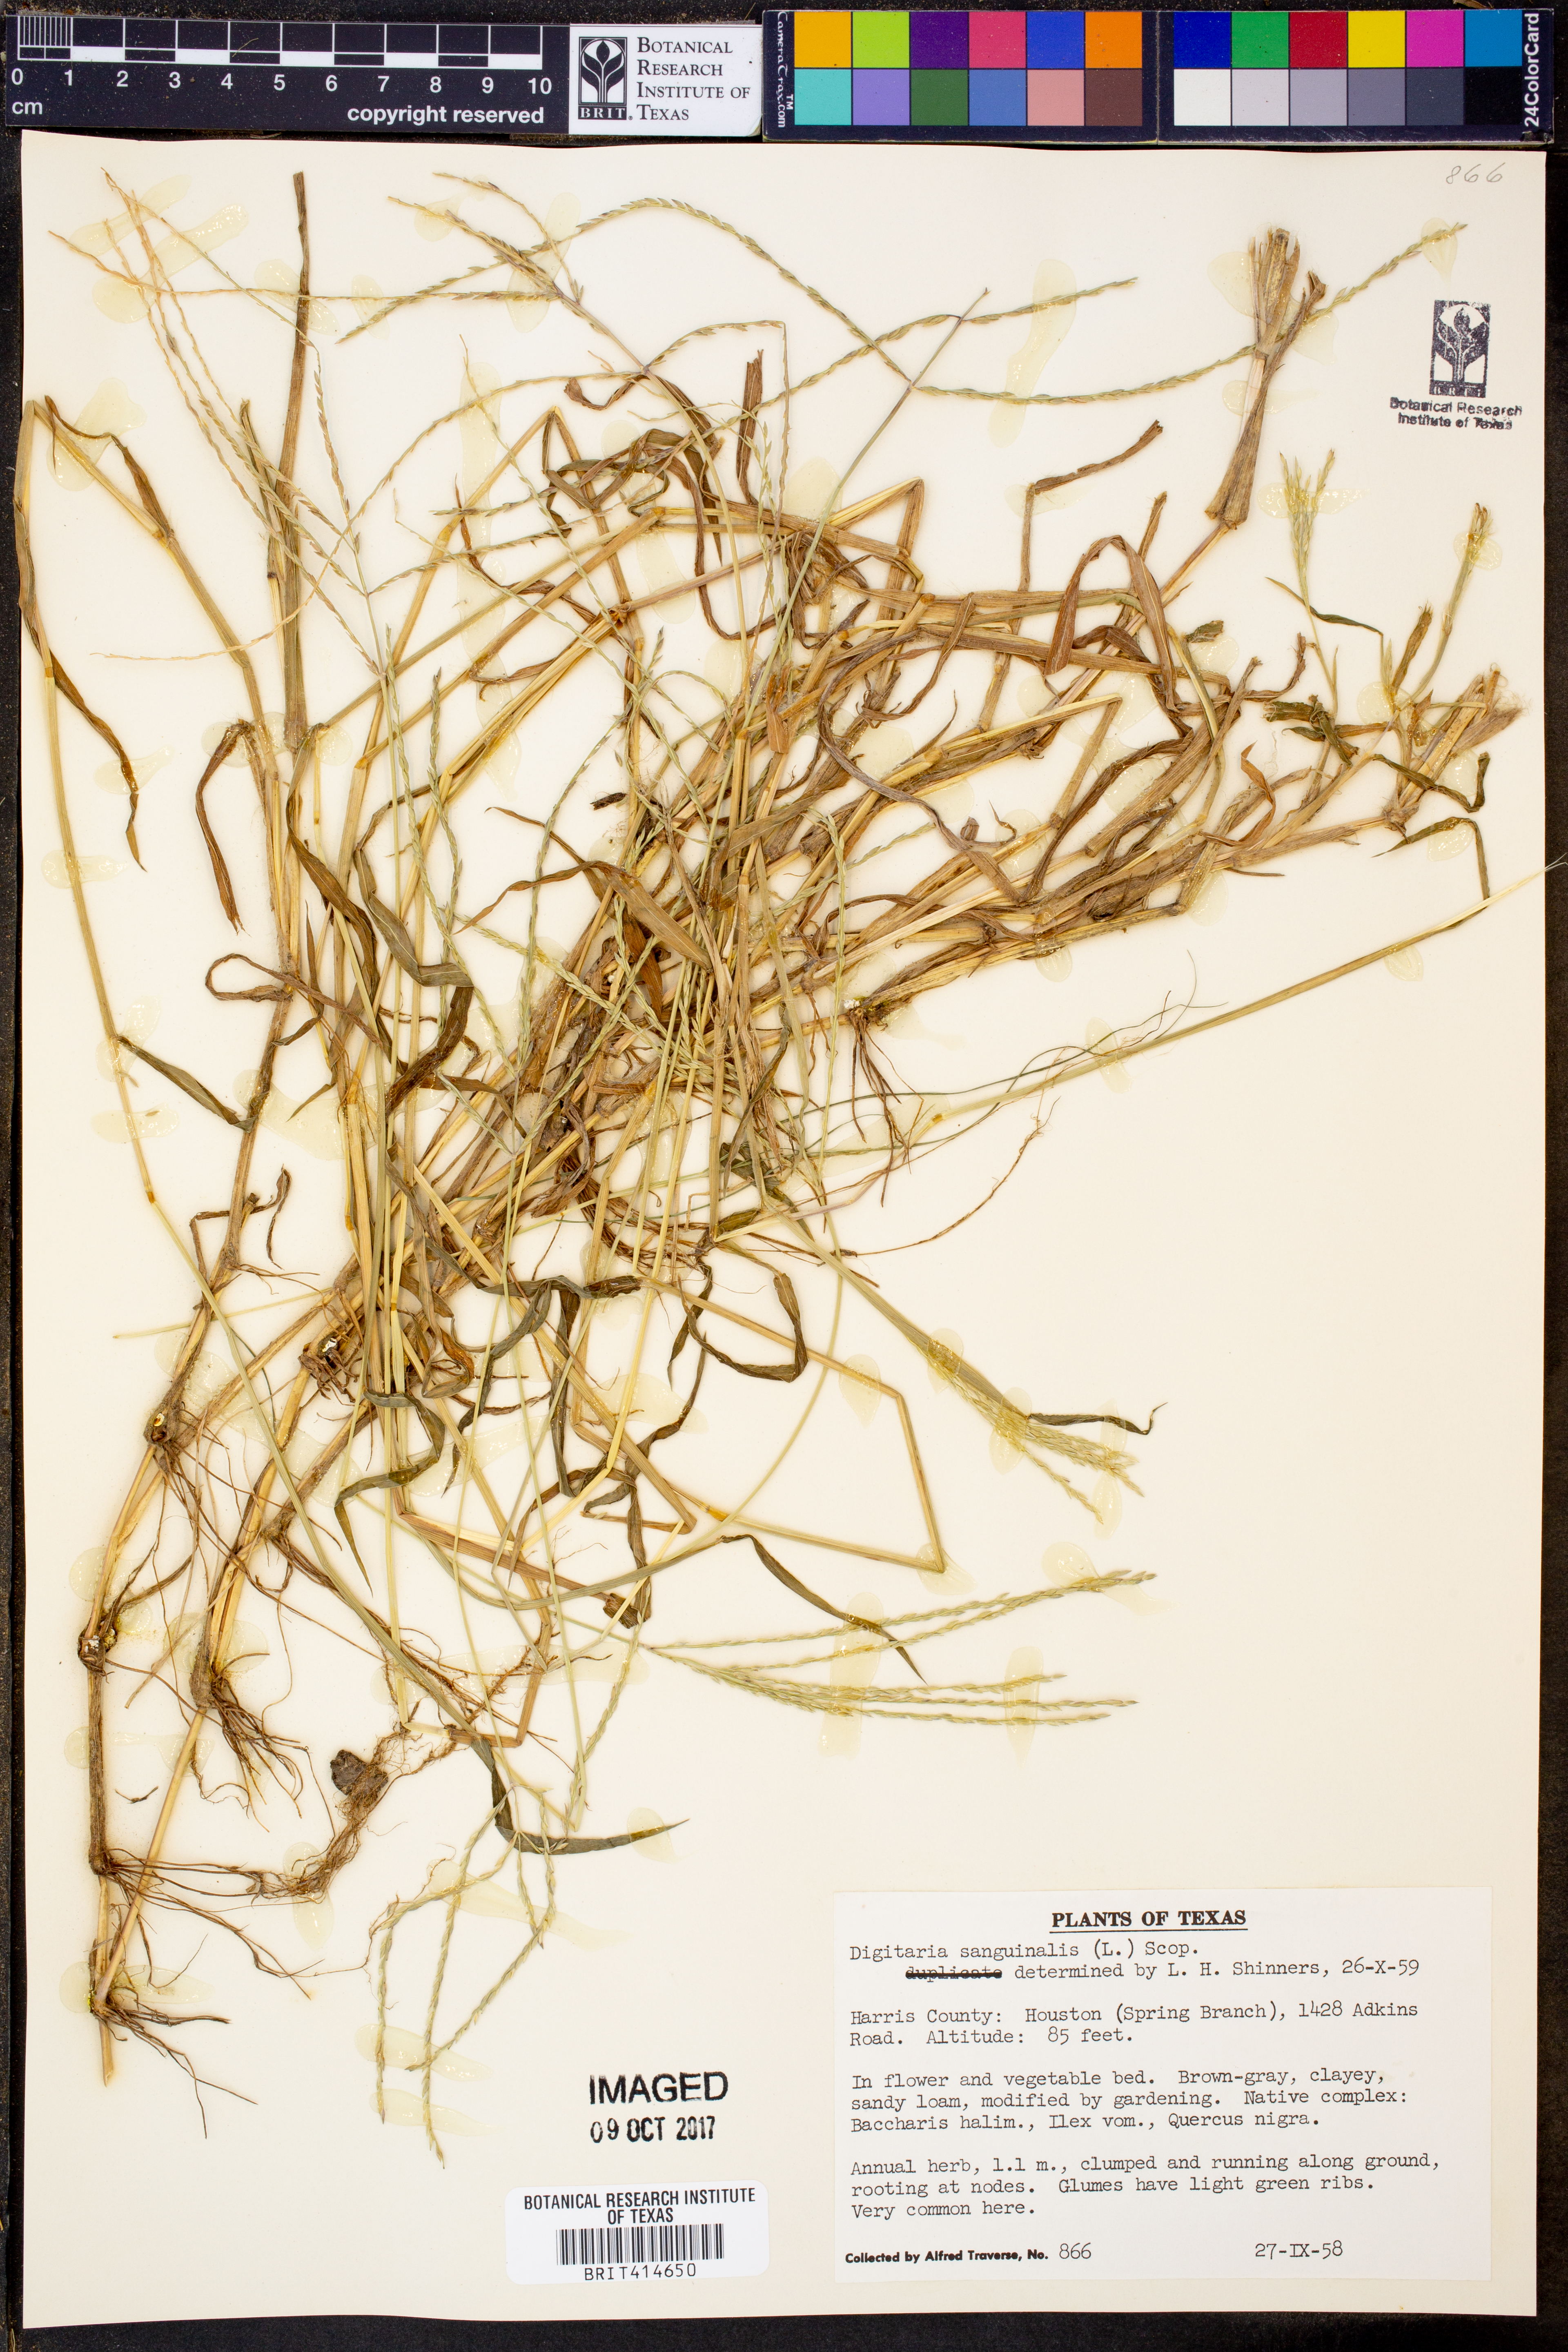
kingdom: Plantae
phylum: Tracheophyta
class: Liliopsida
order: Poales
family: Poaceae
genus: Digitaria
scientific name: Digitaria sanguinalis
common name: Hairy crabgrass
